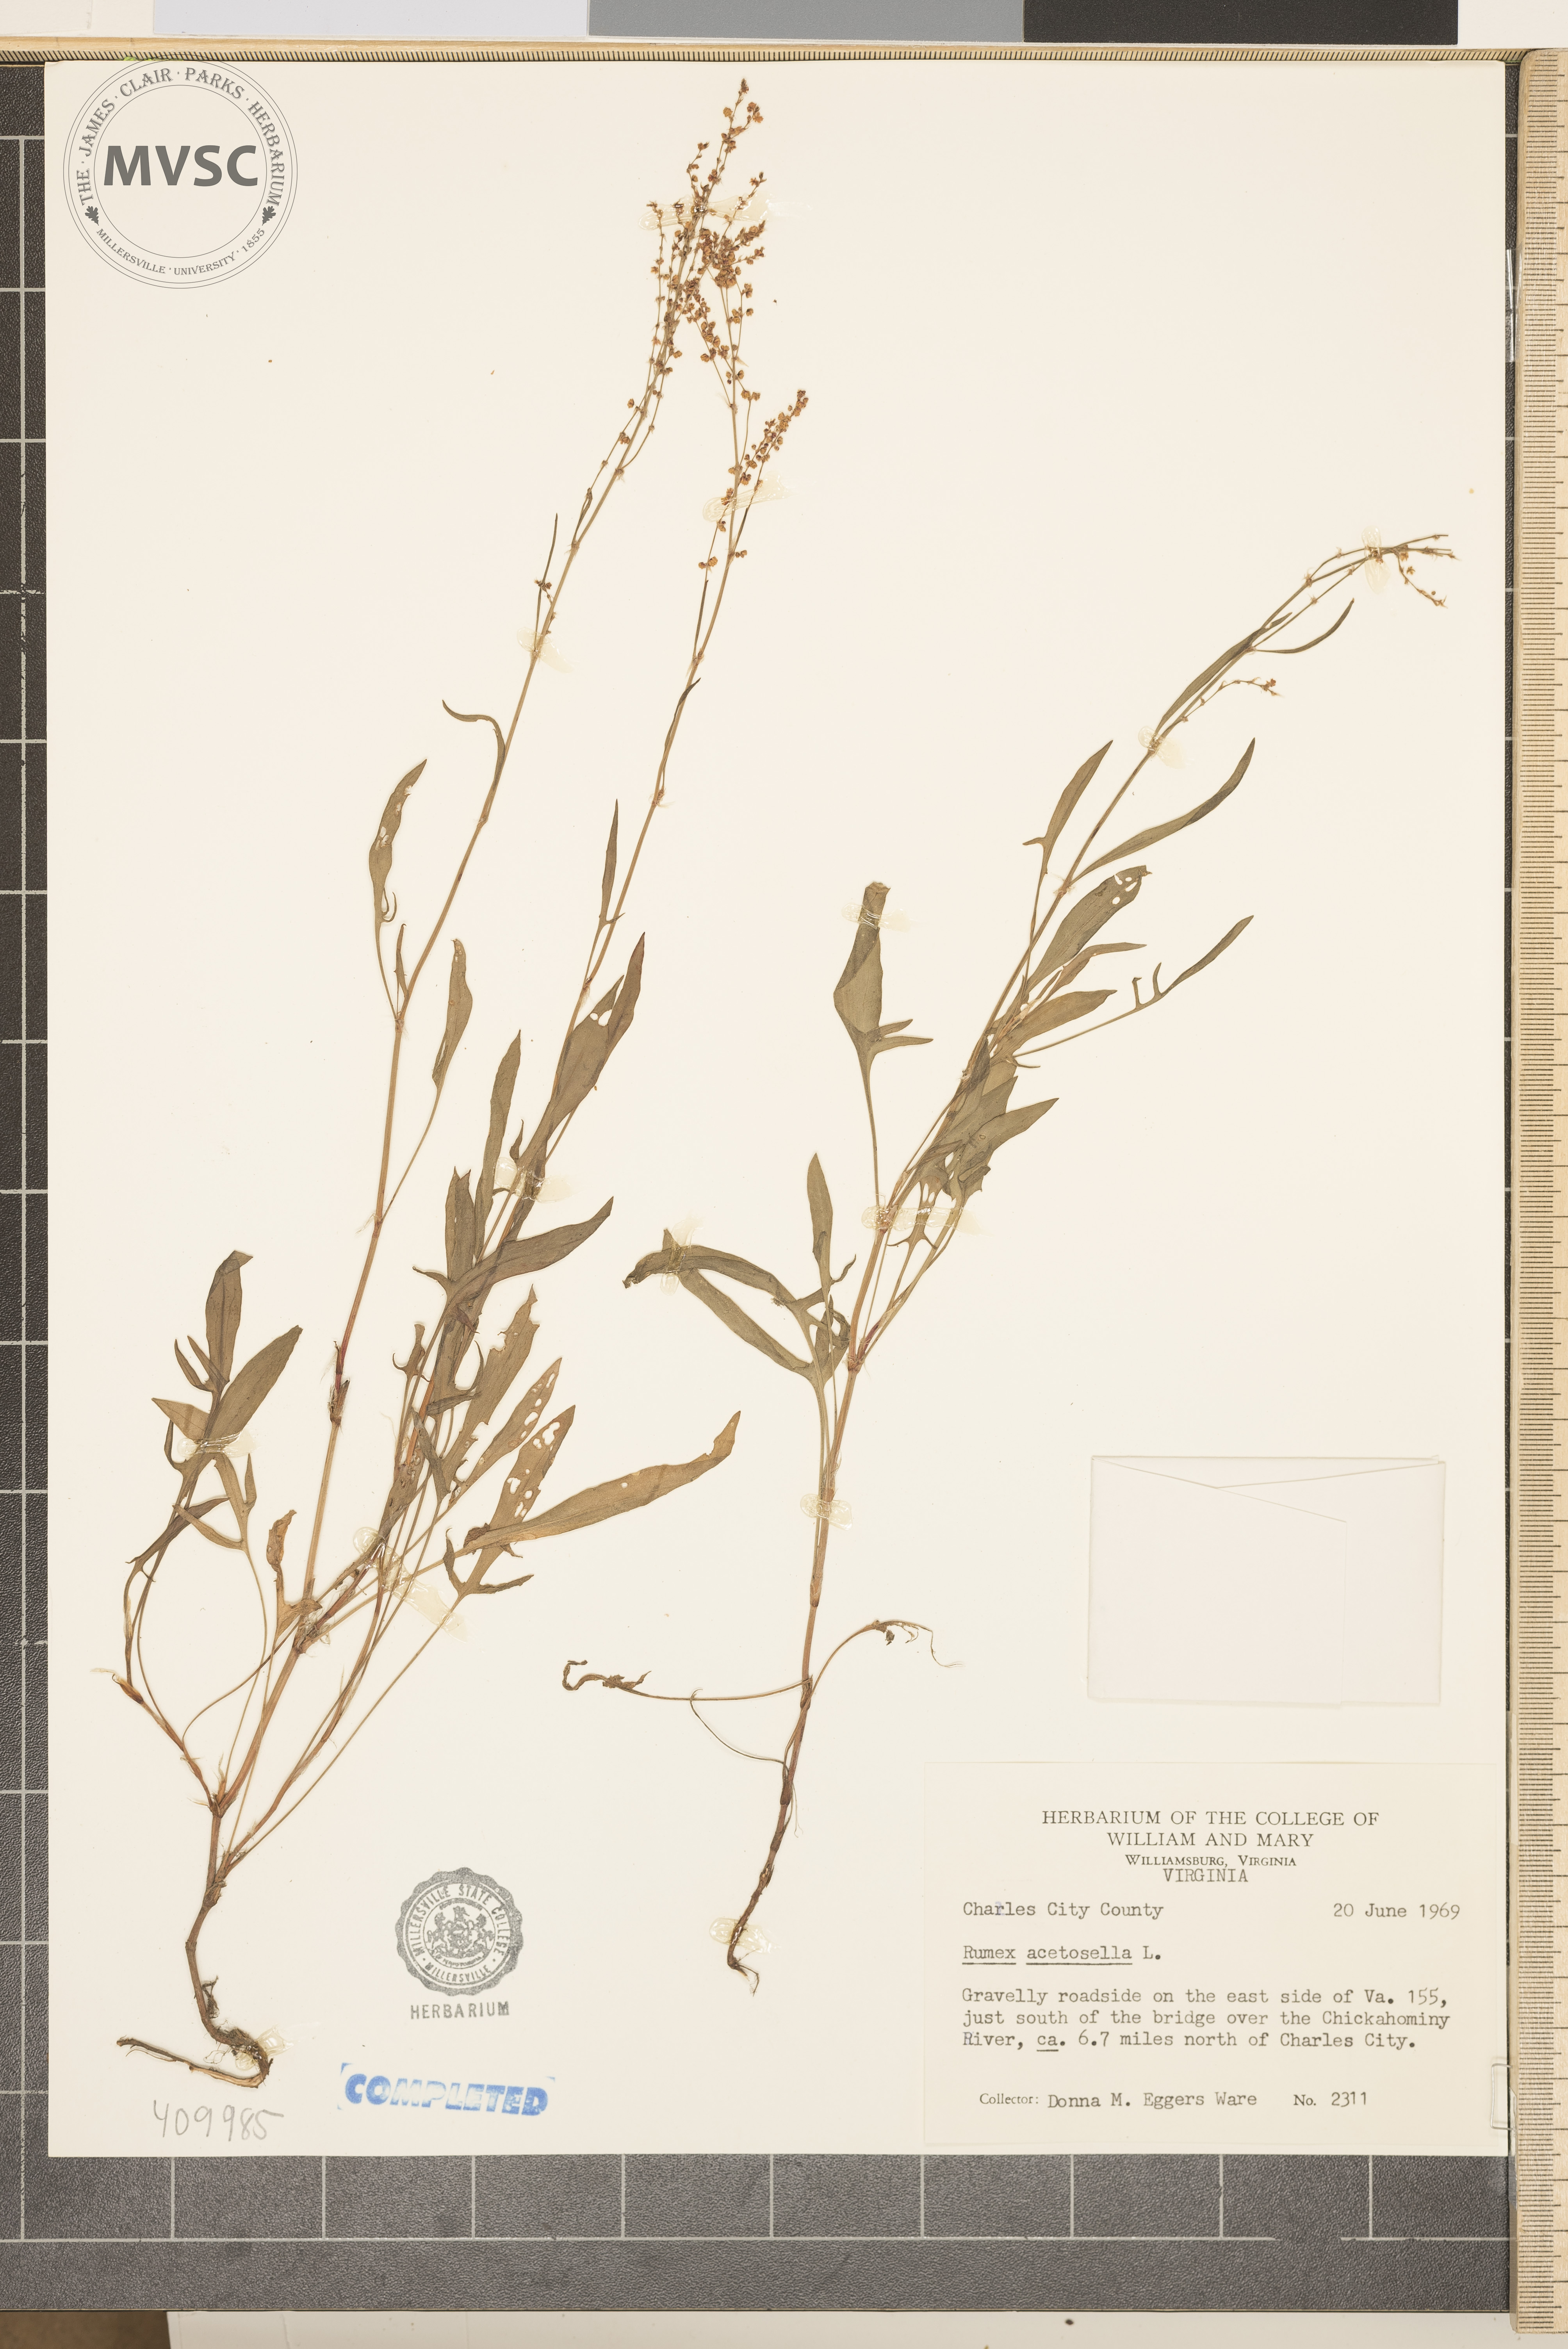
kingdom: Plantae
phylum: Tracheophyta
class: Magnoliopsida
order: Caryophyllales
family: Polygonaceae
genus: Rumex
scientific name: Rumex acetosella
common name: Common sheep sorrel
